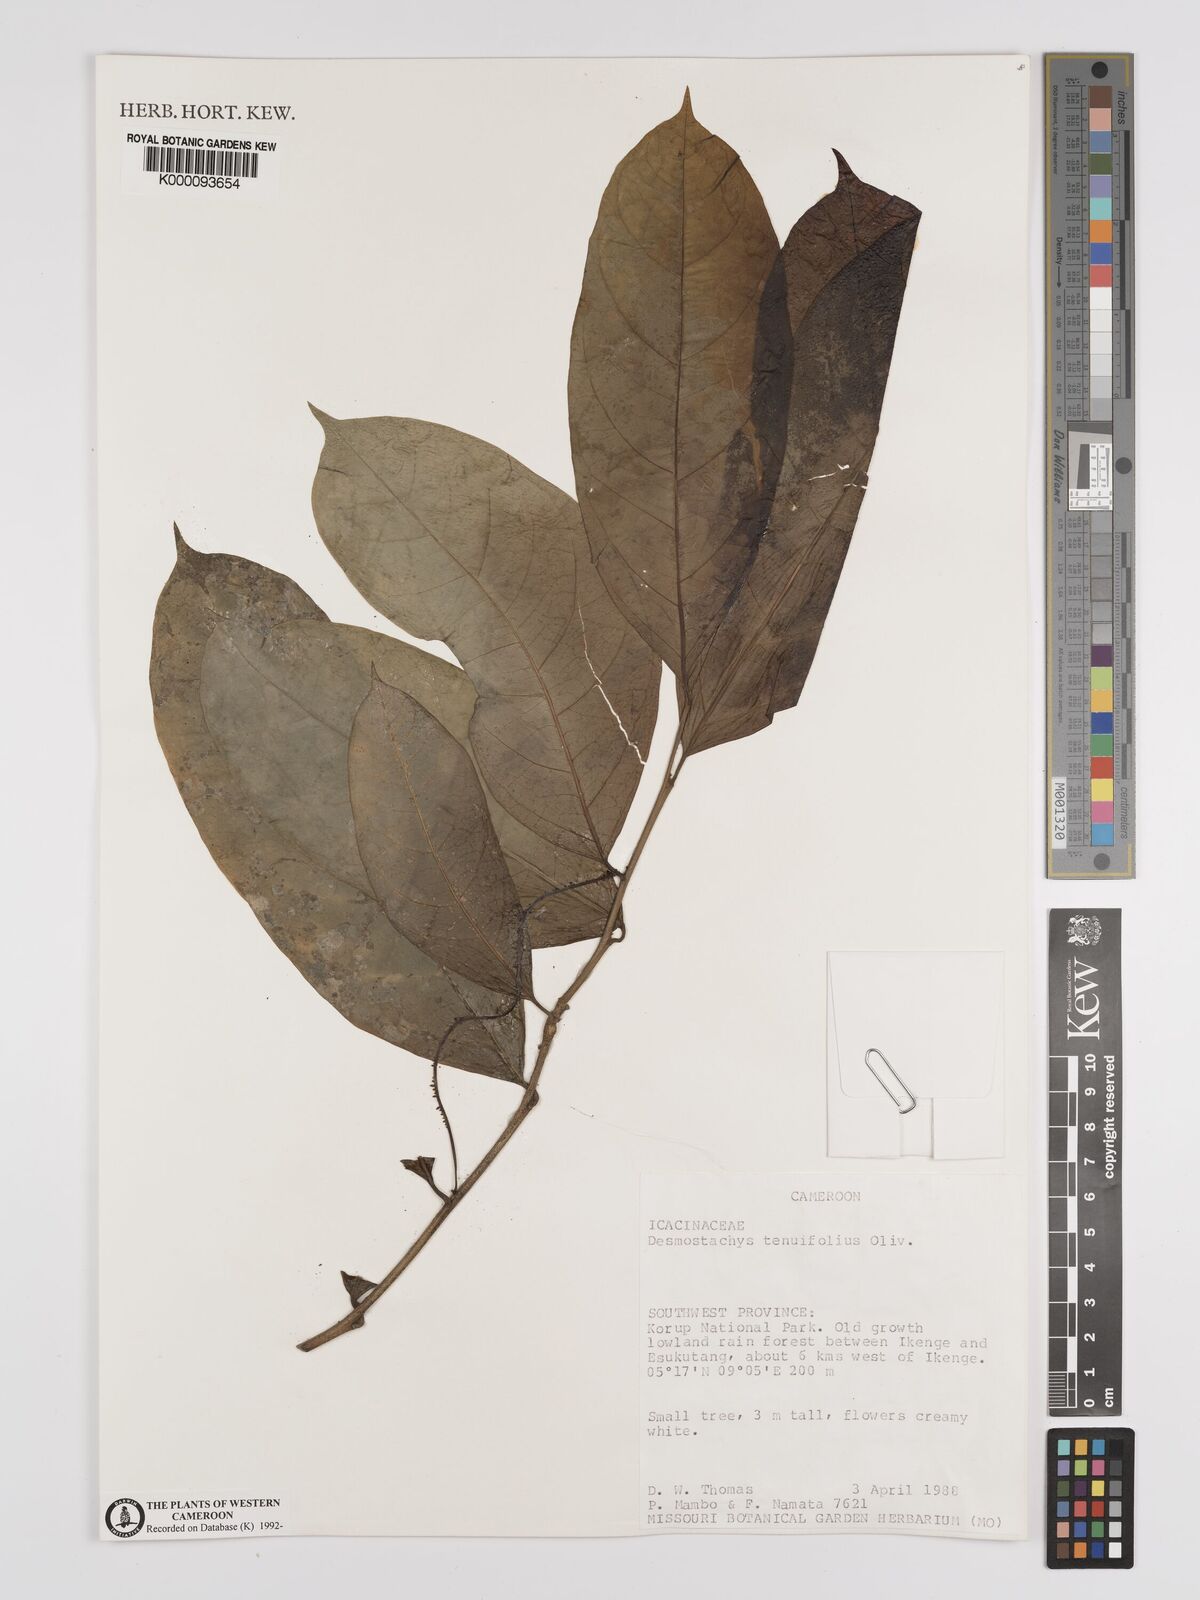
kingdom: Plantae
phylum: Tracheophyta
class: Magnoliopsida
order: Icacinales
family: Icacinaceae
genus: Vadensea
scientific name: Vadensea tenuifolia
